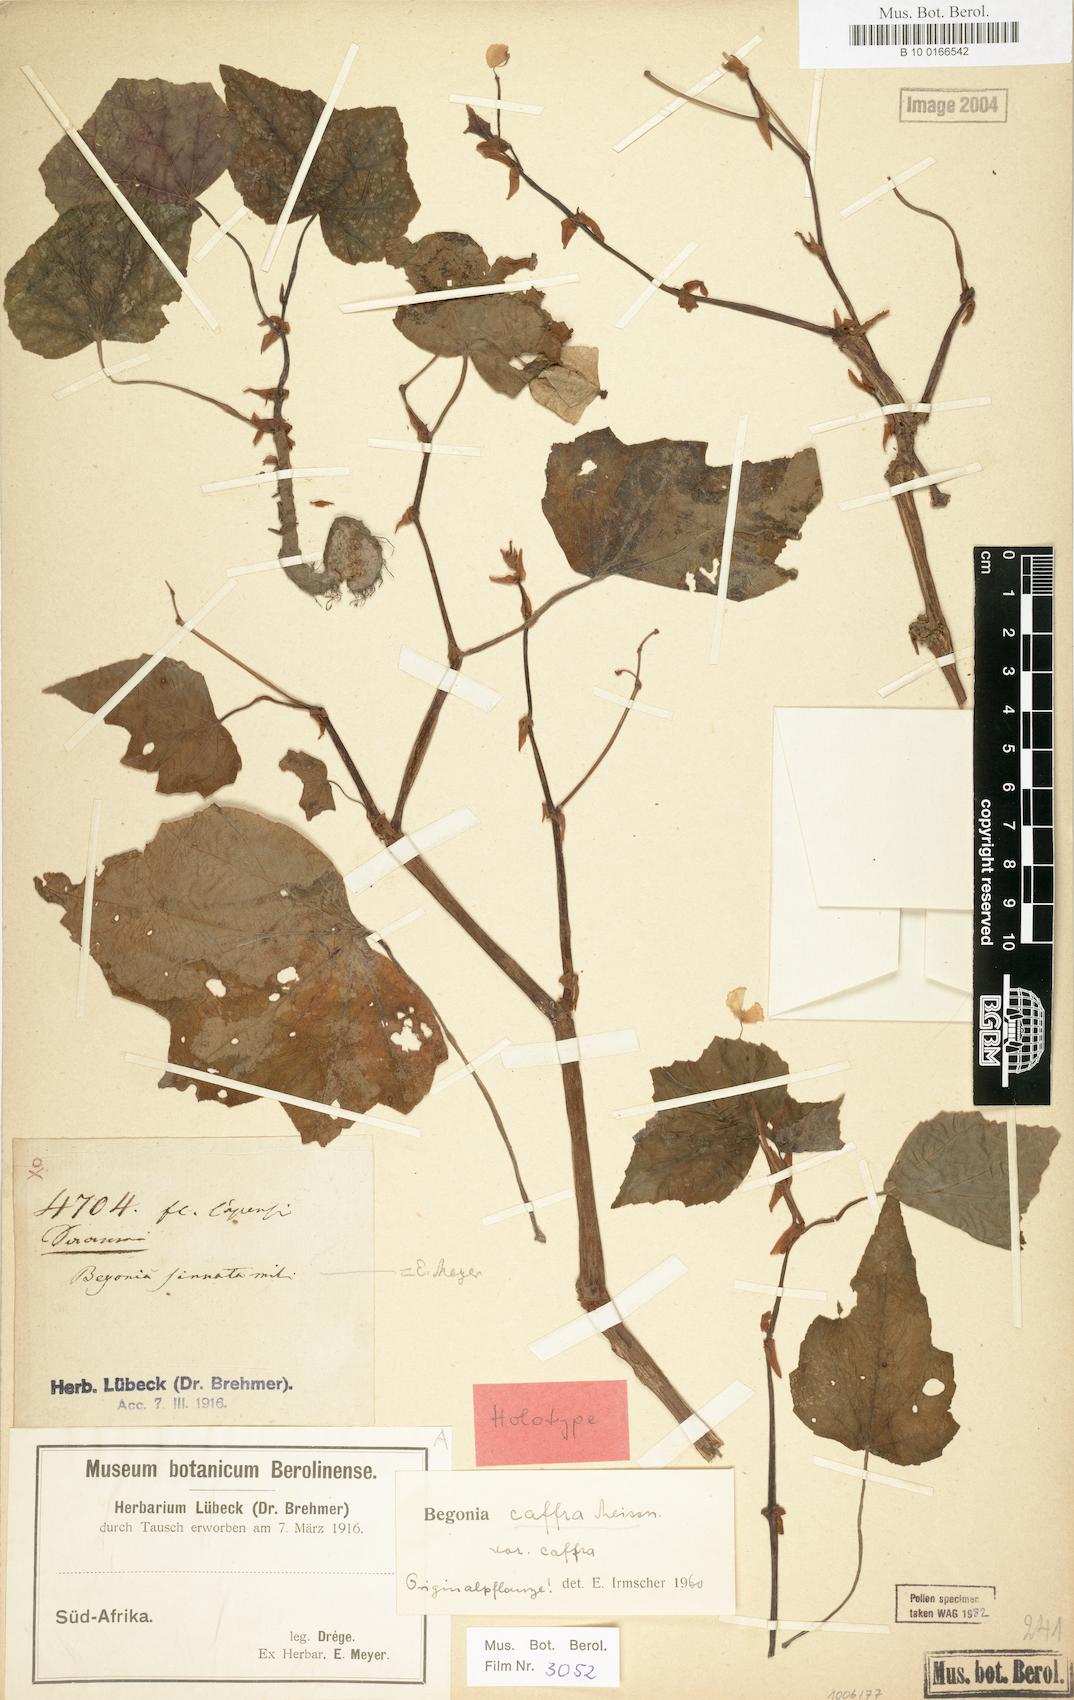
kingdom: Plantae
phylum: Tracheophyta
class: Magnoliopsida
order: Cucurbitales
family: Begoniaceae
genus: Begonia
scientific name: Begonia homonyma
